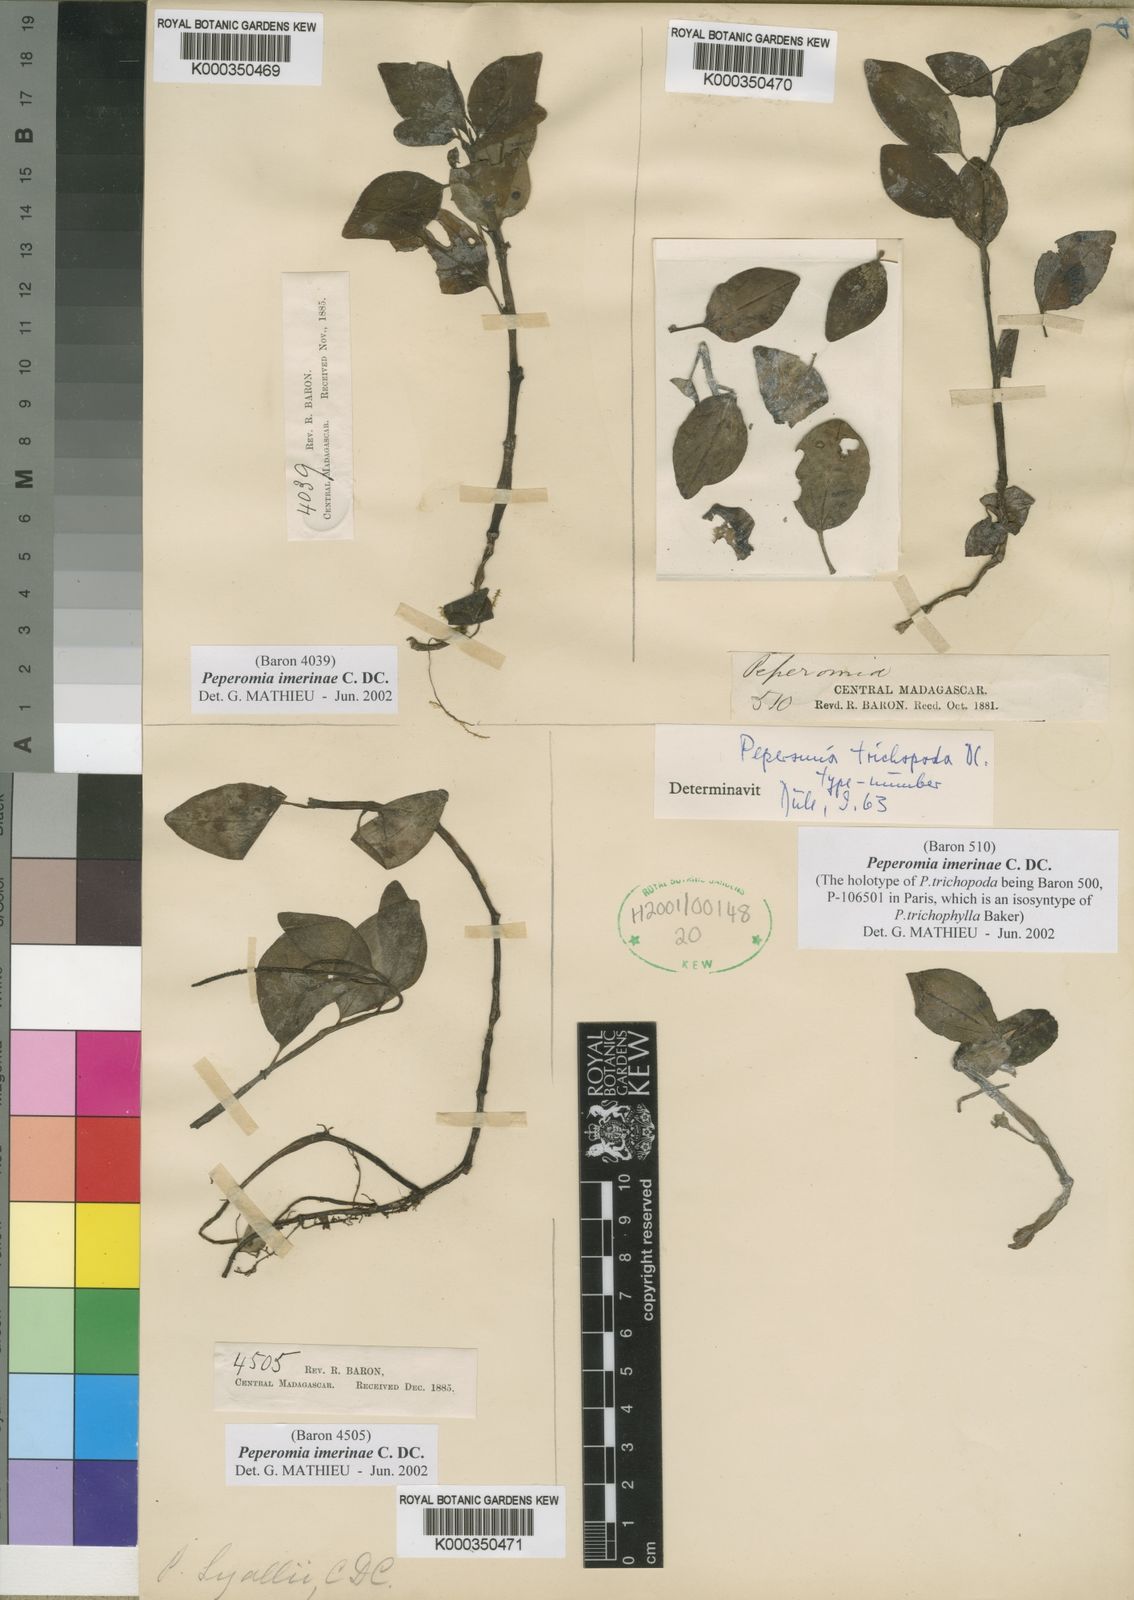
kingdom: Plantae
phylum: Tracheophyta
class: Magnoliopsida
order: Piperales
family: Piperaceae
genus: Peperomia
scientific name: Peperomia imerinae
